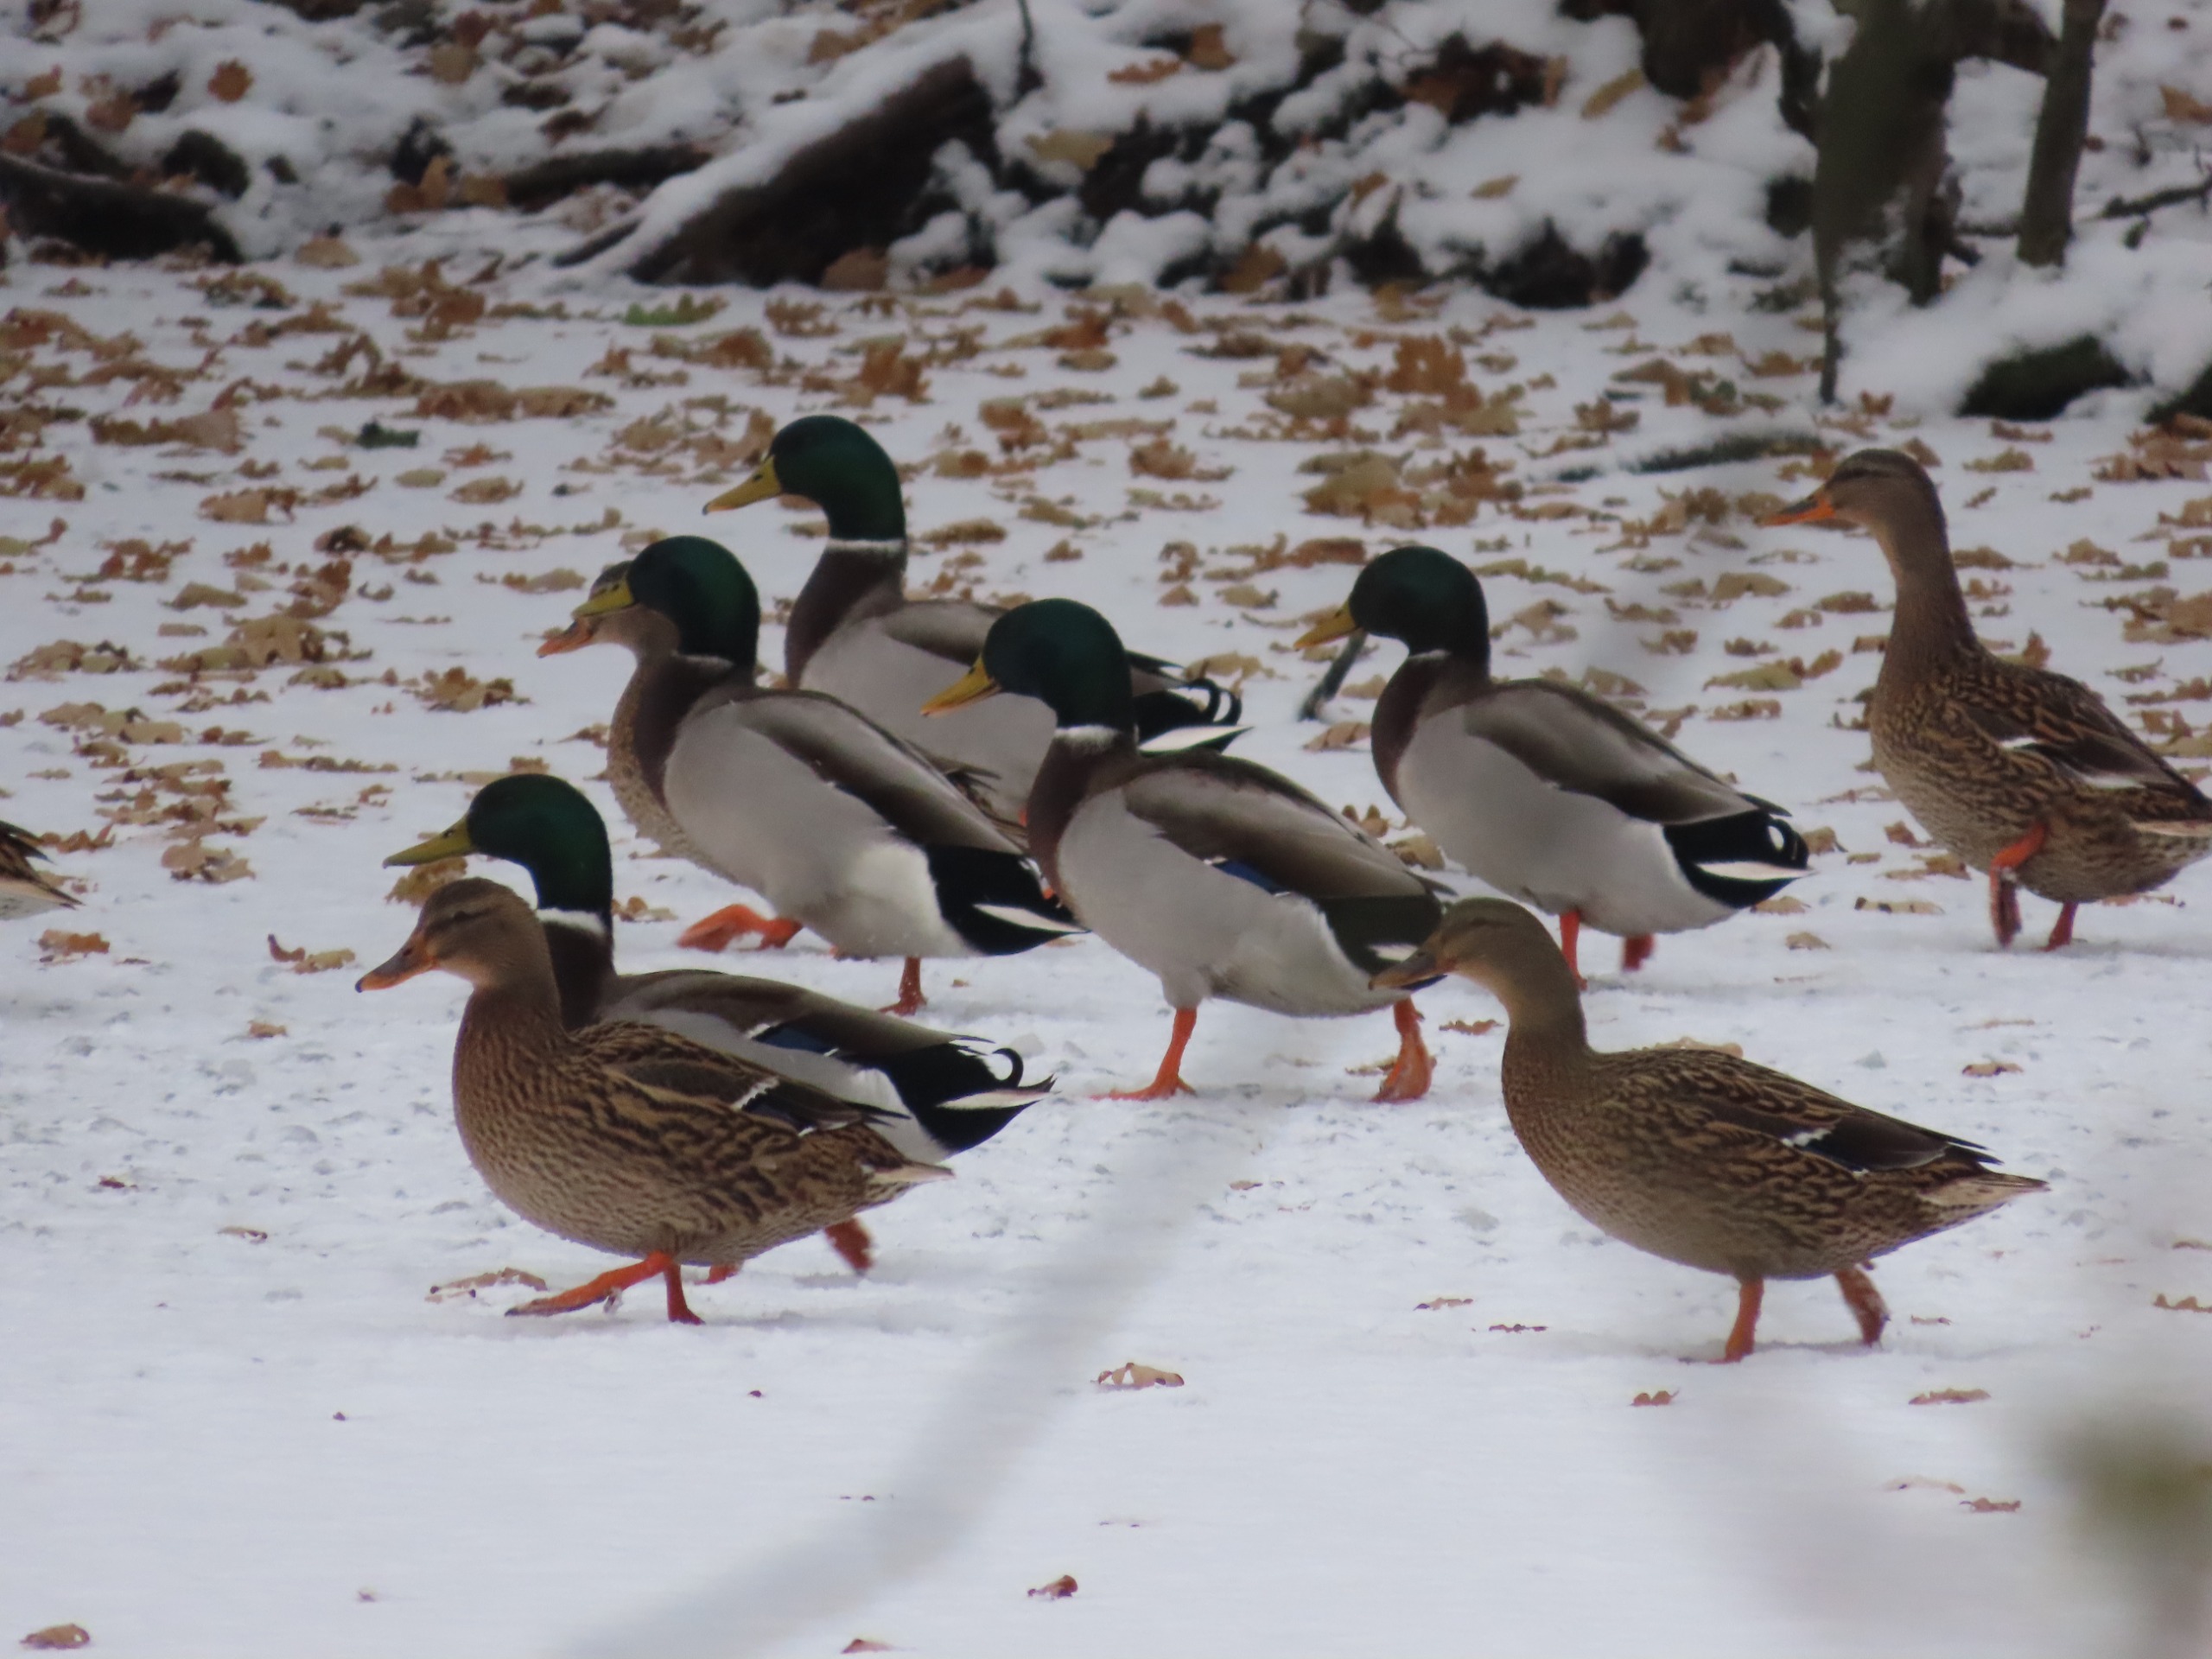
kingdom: Animalia
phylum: Chordata
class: Aves
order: Anseriformes
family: Anatidae
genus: Anas
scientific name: Anas platyrhynchos
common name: Gråand
